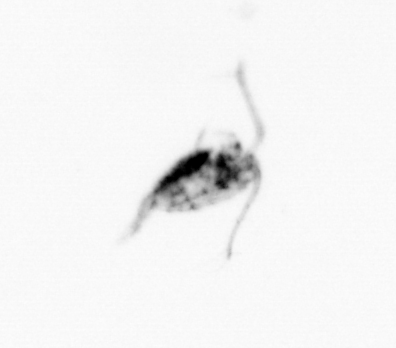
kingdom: Animalia
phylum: Arthropoda
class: Copepoda
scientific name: Copepoda
